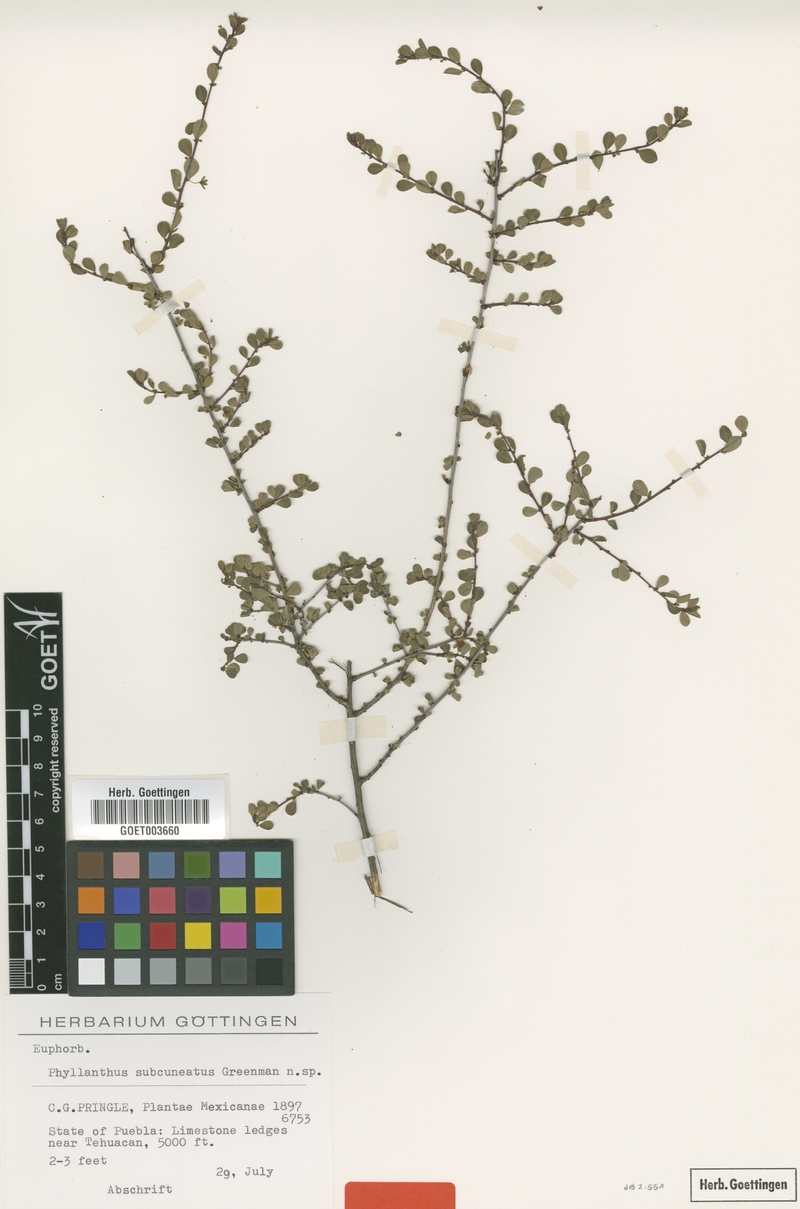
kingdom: Plantae
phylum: Tracheophyta
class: Magnoliopsida
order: Malpighiales
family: Phyllanthaceae
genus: Phyllanthus
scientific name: Phyllanthus subcuneatus
